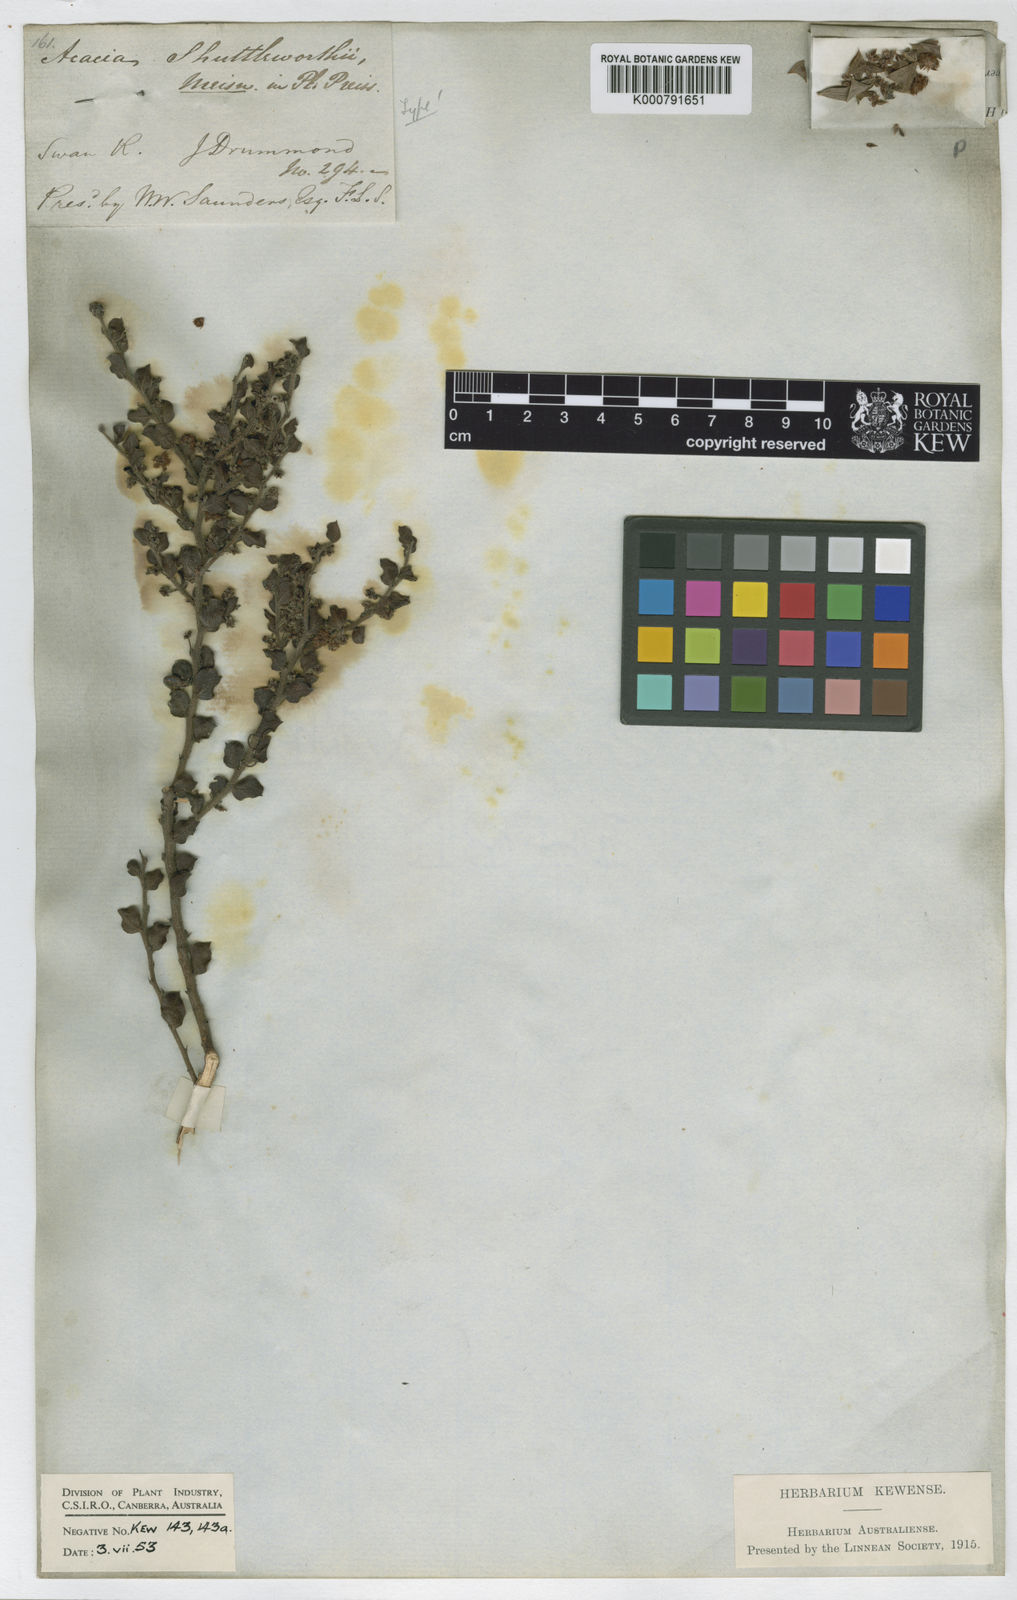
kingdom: Plantae
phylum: Tracheophyta
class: Magnoliopsida
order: Fabales
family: Fabaceae
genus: Acacia
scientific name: Acacia shuttleworthii
